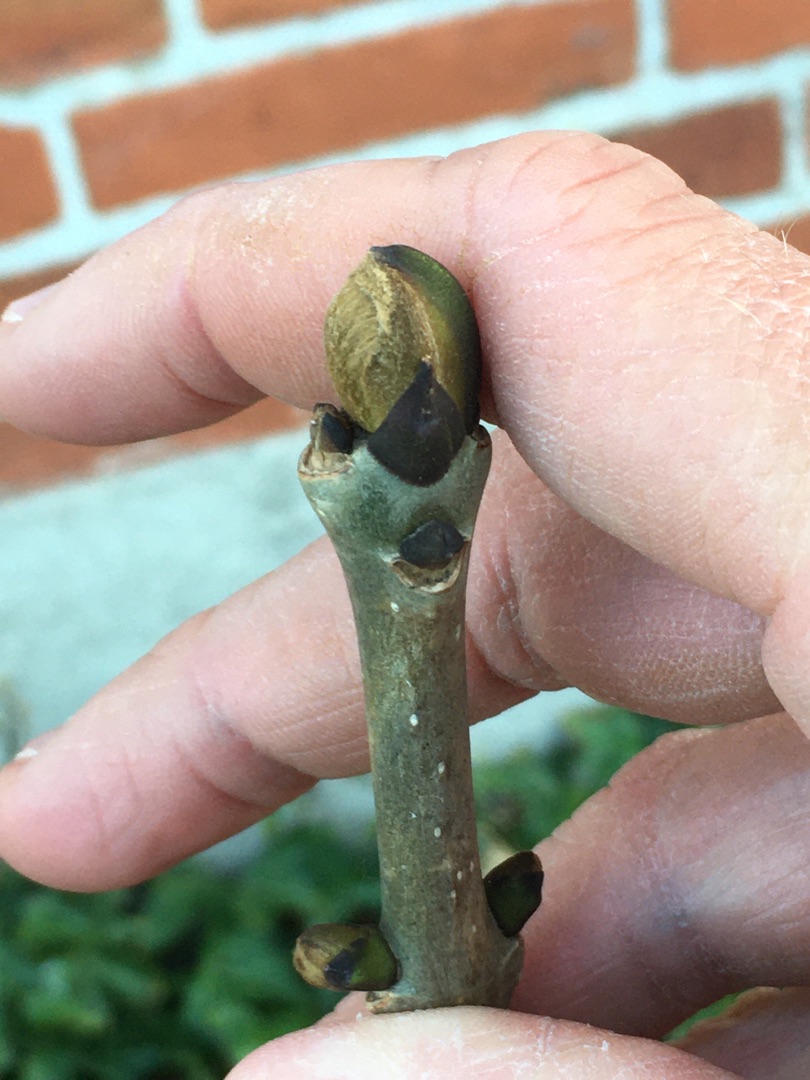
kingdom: Plantae
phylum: Tracheophyta
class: Magnoliopsida
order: Lamiales
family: Oleaceae
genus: Fraxinus
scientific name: Fraxinus excelsior
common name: Ask
